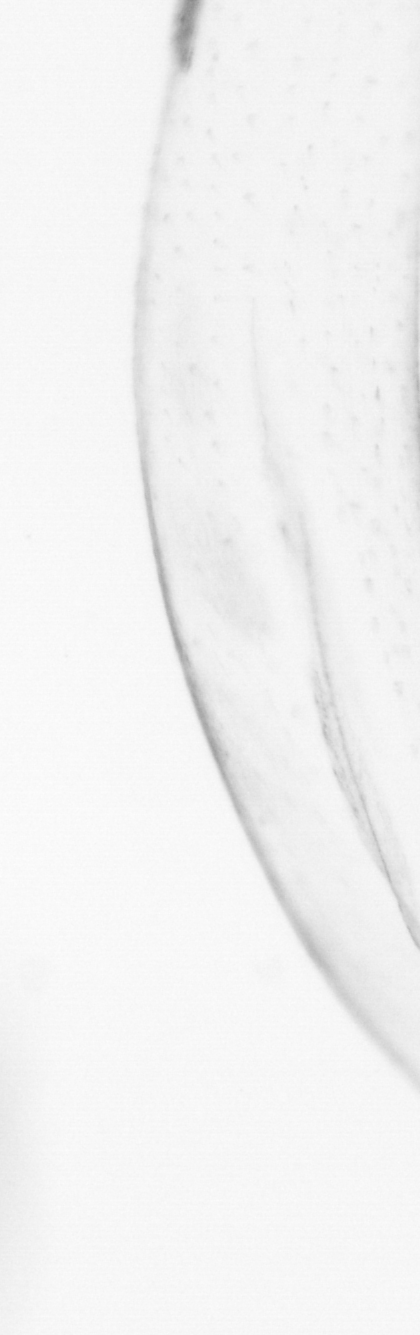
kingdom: Animalia
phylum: Chaetognatha
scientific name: Chaetognatha
